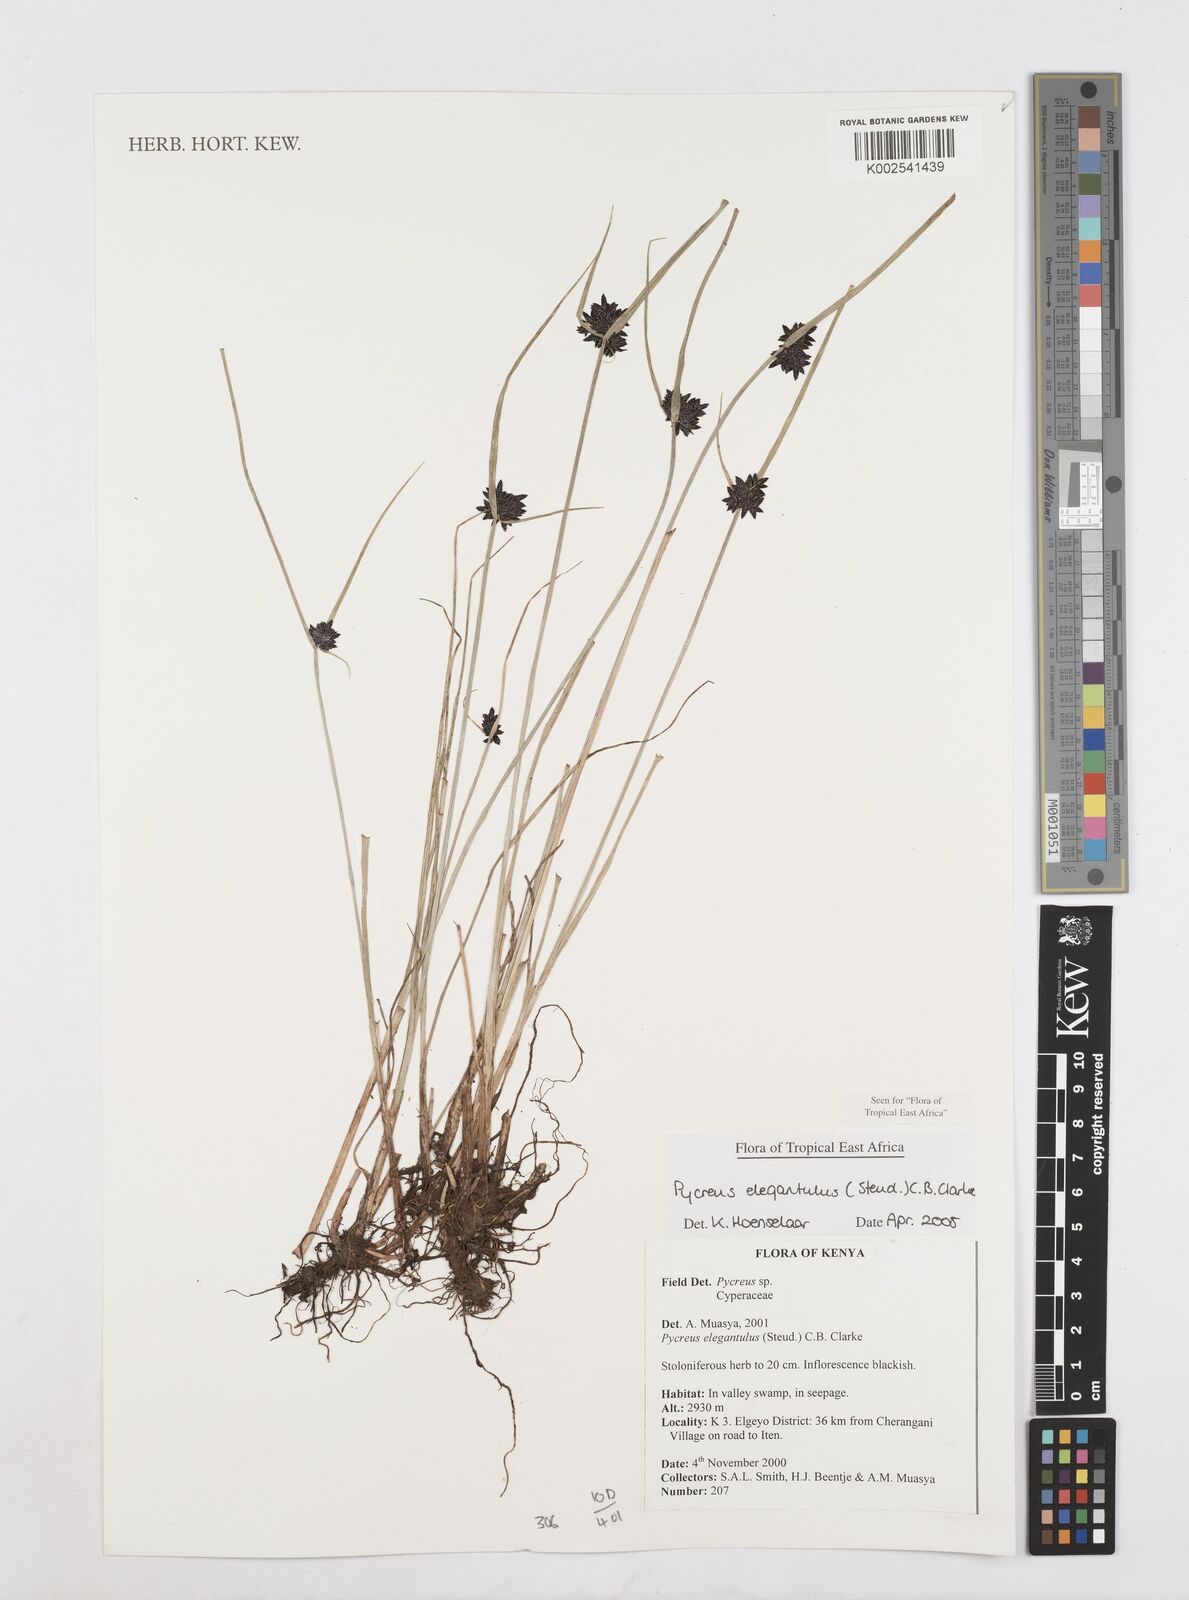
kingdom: Plantae
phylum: Tracheophyta
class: Liliopsida
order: Poales
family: Cyperaceae
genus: Cyperus
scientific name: Cyperus elegantulus
